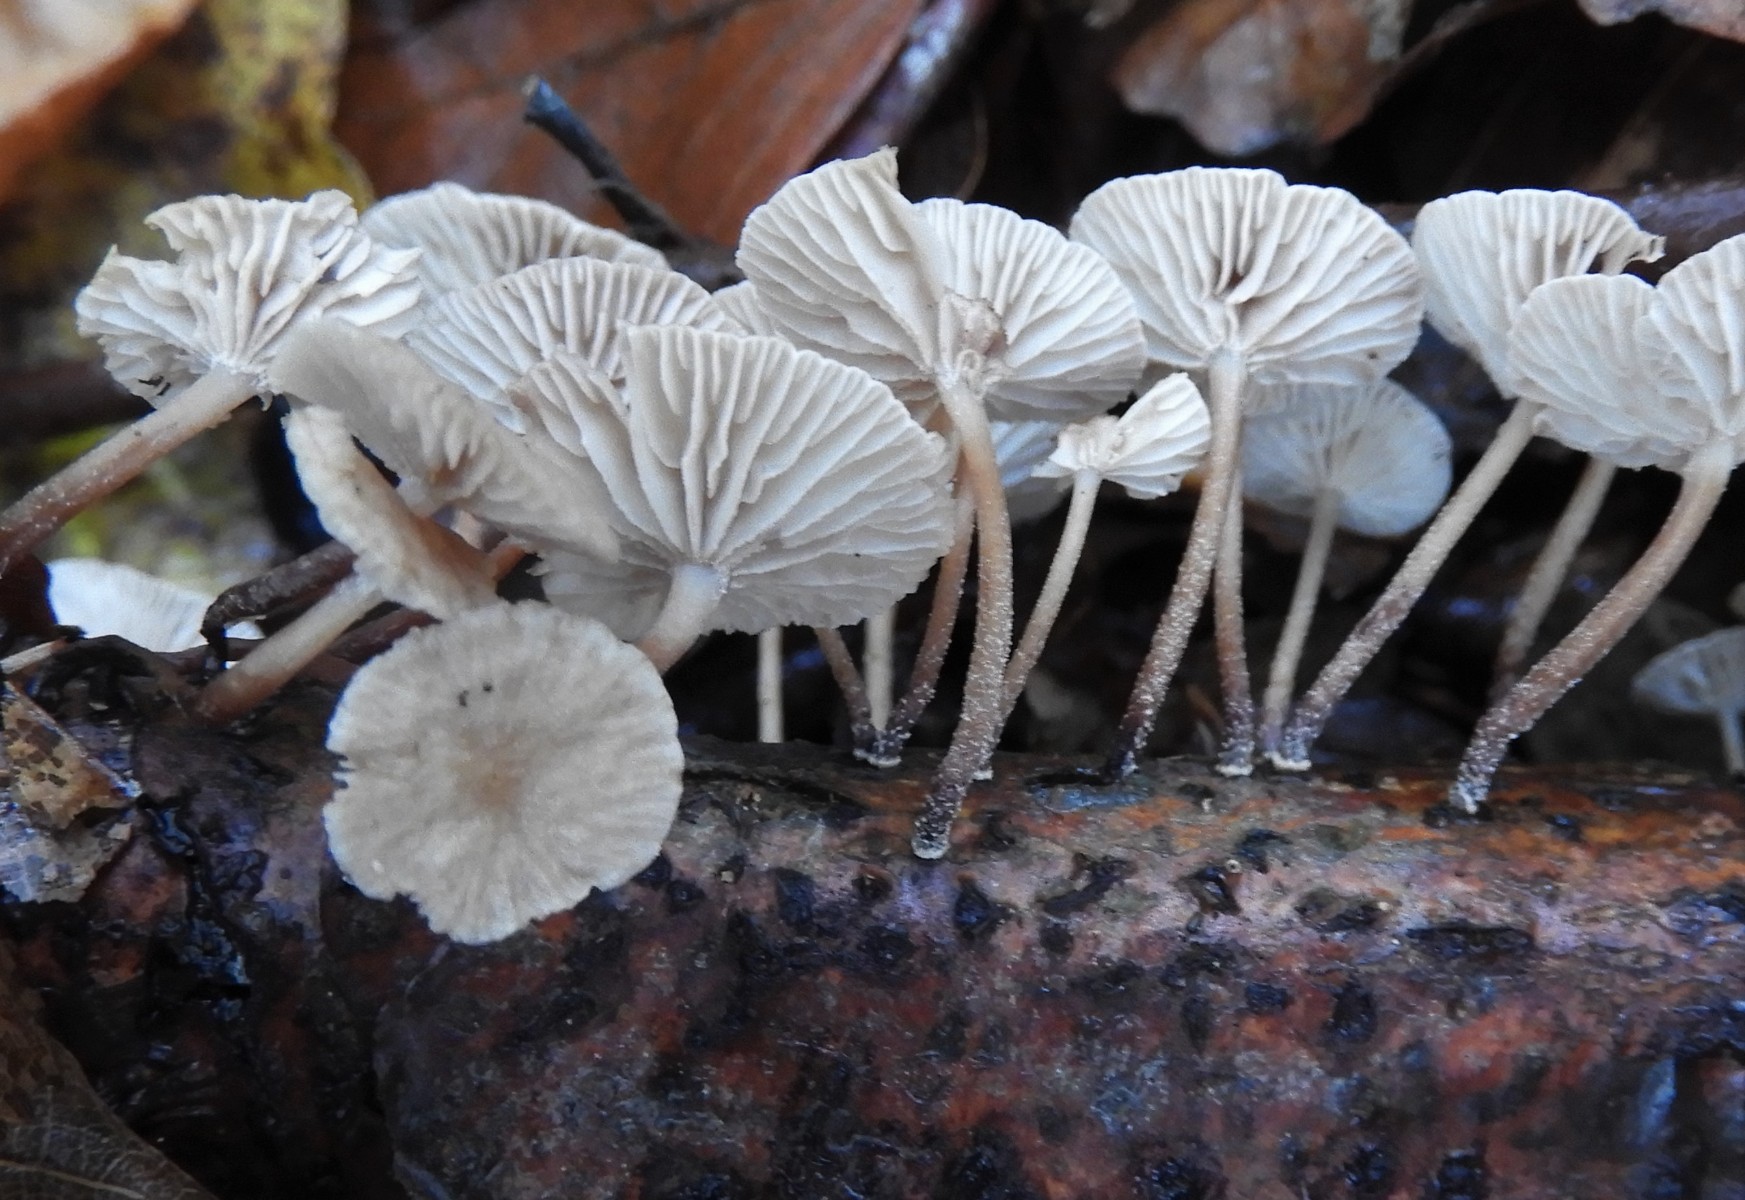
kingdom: Fungi
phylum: Basidiomycota
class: Agaricomycetes
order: Agaricales
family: Omphalotaceae
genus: Collybiopsis
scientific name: Collybiopsis ramealis
